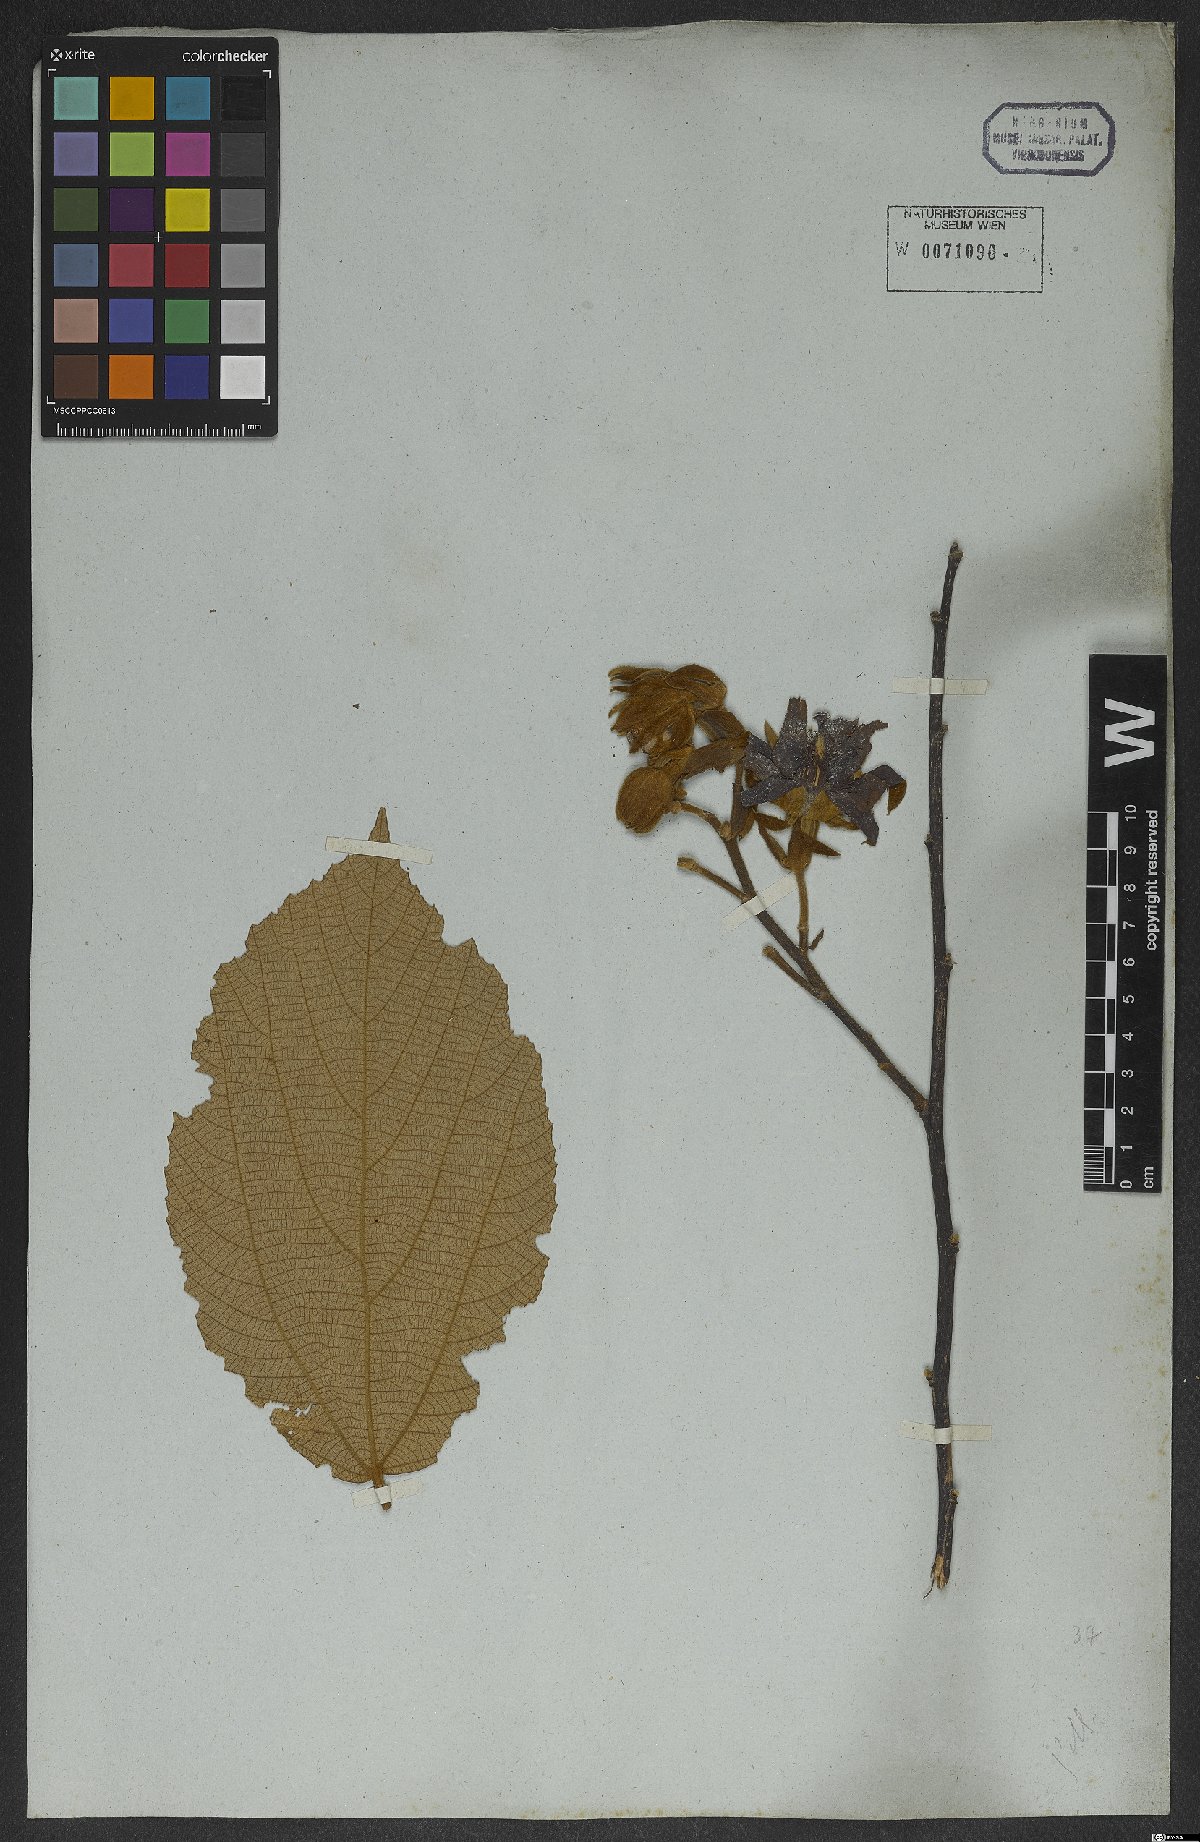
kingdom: Plantae
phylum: Tracheophyta
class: Magnoliopsida
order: Malvales
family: Malvaceae
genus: Luehea
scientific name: Luehea grandiflora
